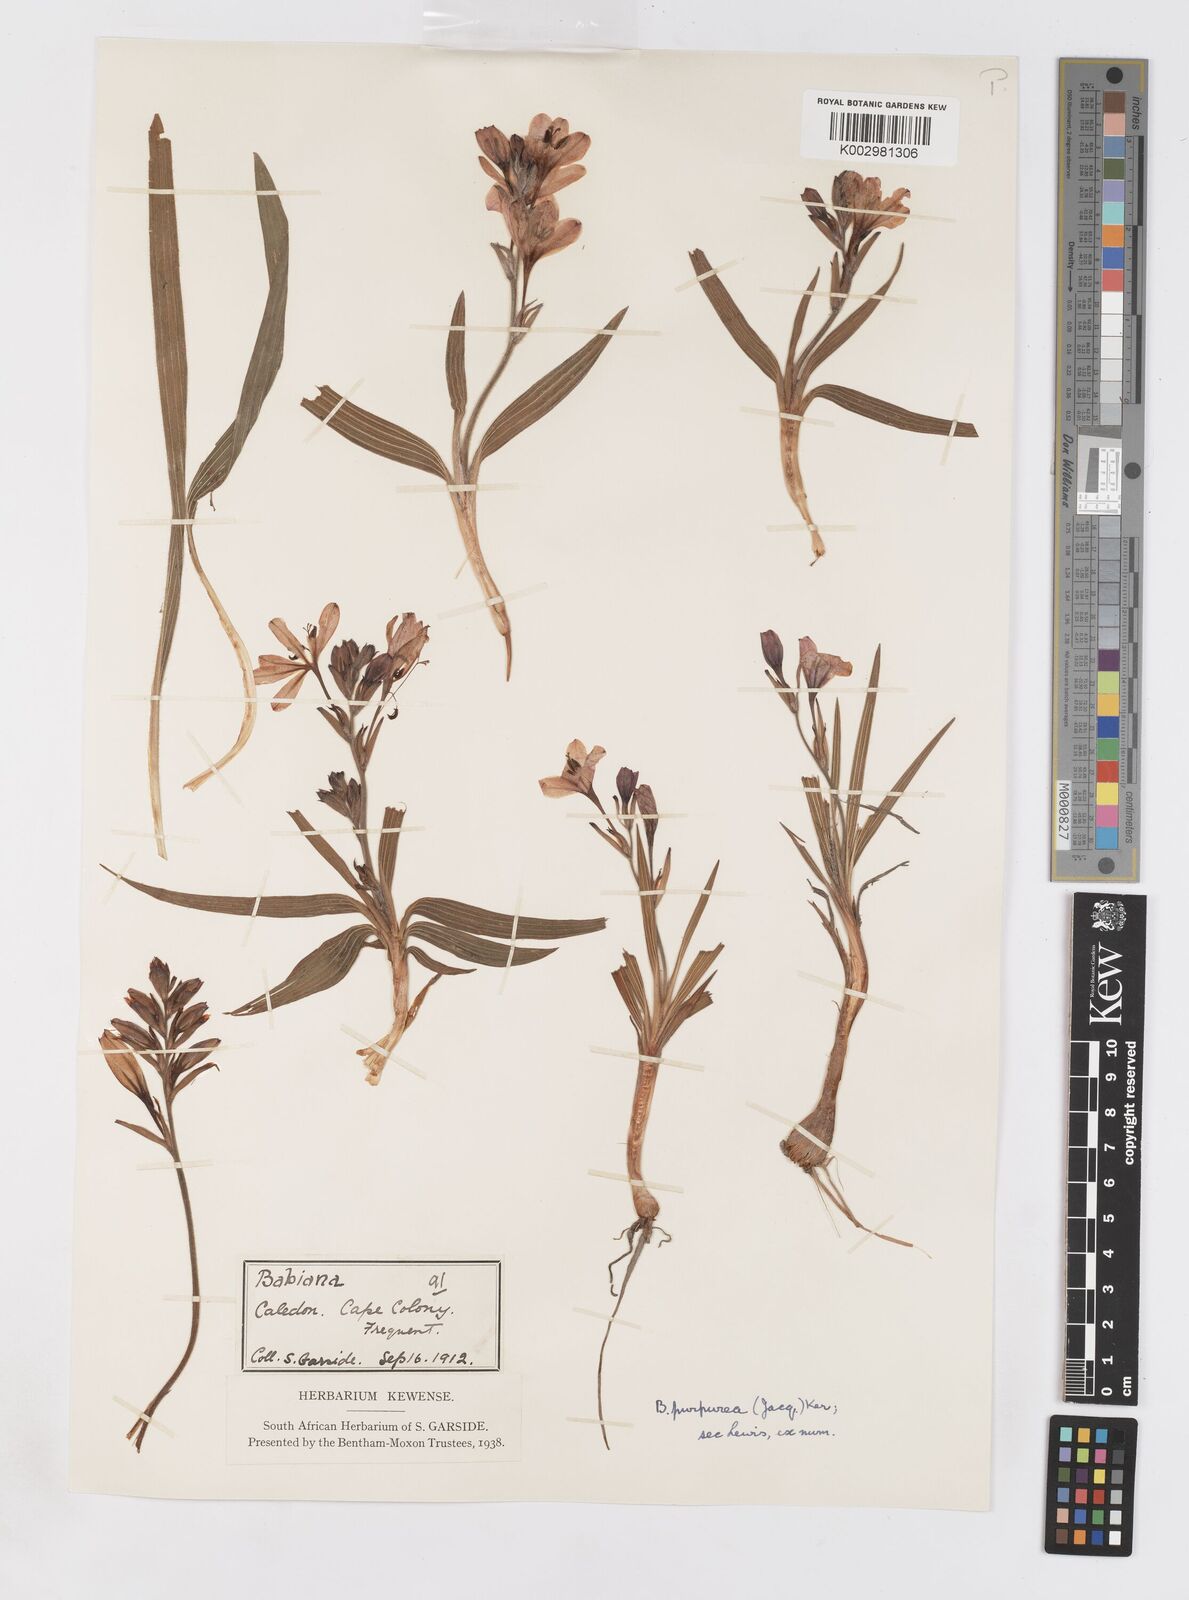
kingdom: Plantae
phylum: Tracheophyta
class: Liliopsida
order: Asparagales
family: Iridaceae
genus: Babiana
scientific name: Babiana purpurea
